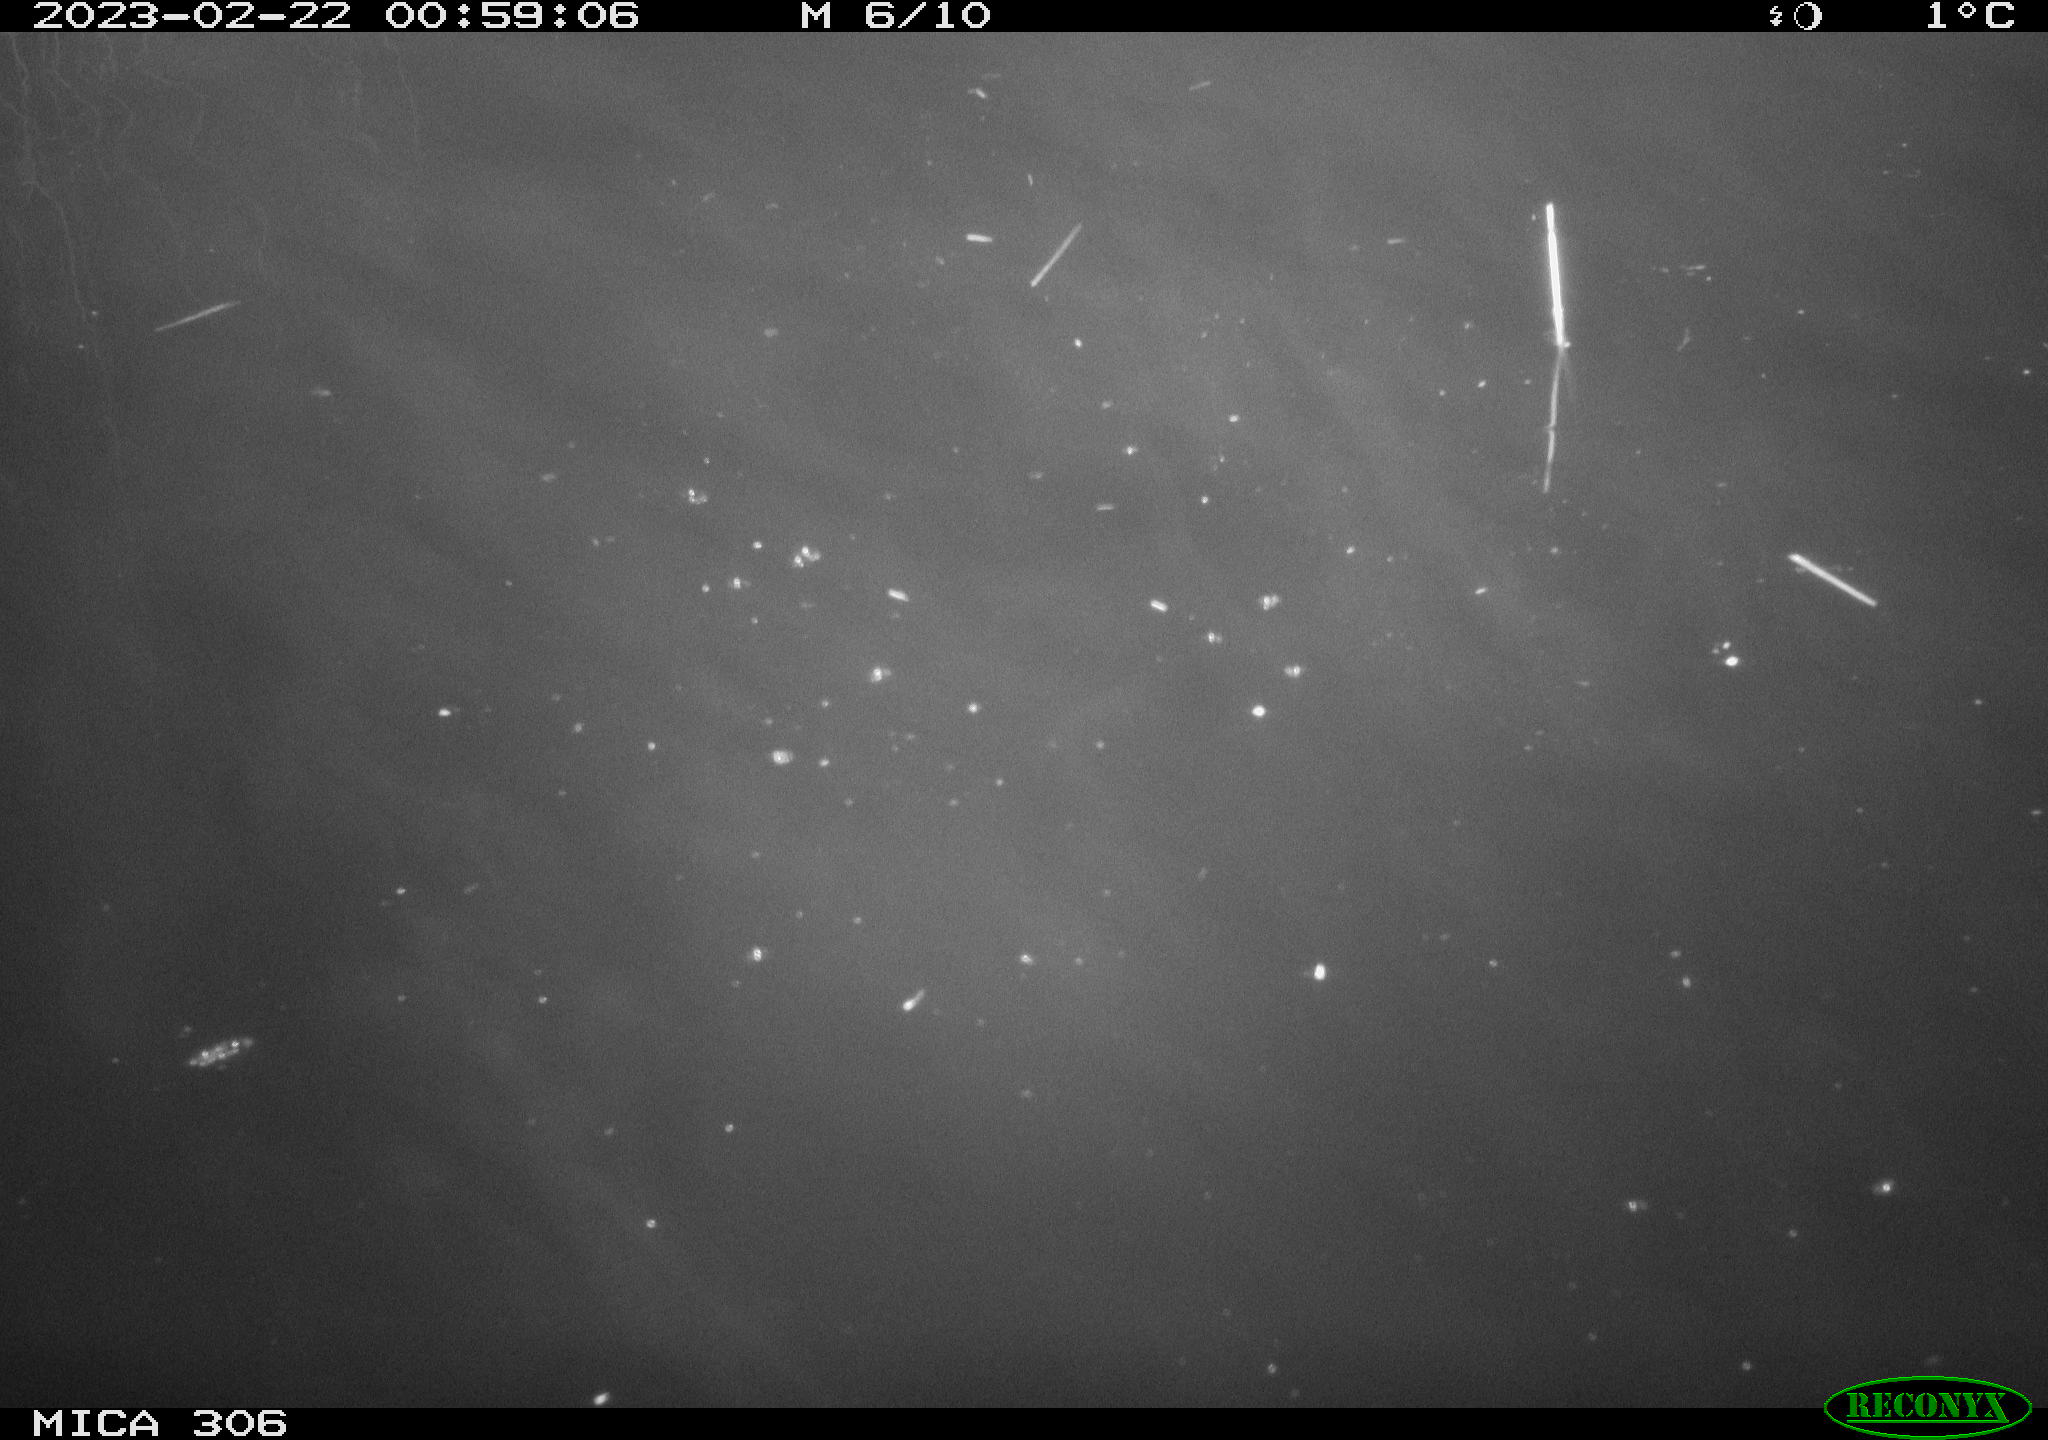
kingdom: Animalia
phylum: Chordata
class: Mammalia
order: Rodentia
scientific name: Rodentia
